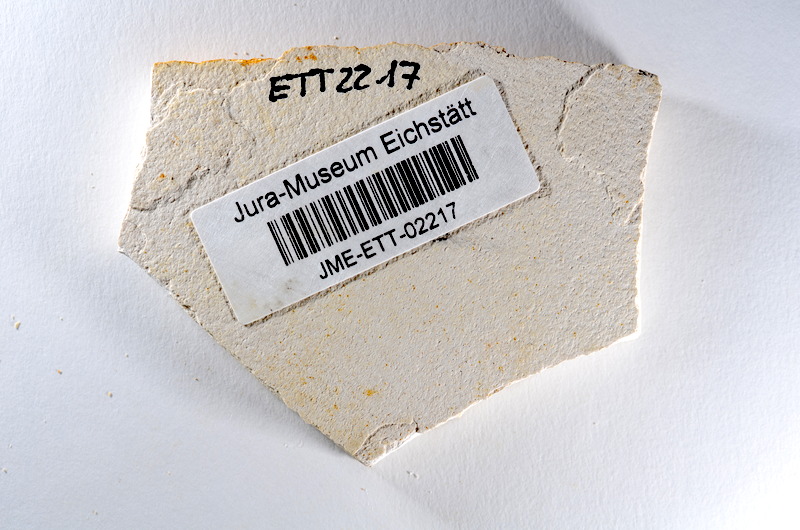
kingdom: Animalia
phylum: Chordata
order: Salmoniformes
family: Orthogonikleithridae
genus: Orthogonikleithrus
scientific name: Orthogonikleithrus hoelli
